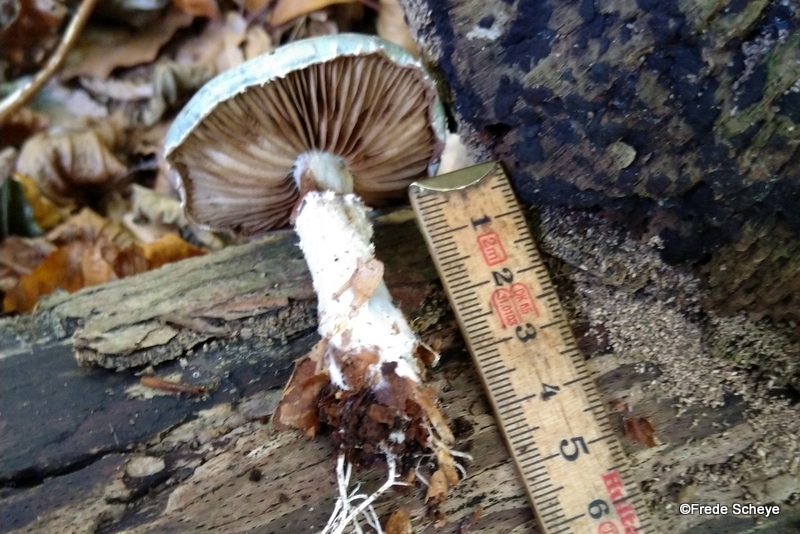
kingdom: Fungi
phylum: Basidiomycota
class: Agaricomycetes
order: Agaricales
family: Strophariaceae
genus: Stropharia
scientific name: Stropharia cyanea
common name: blågrøn bredblad
